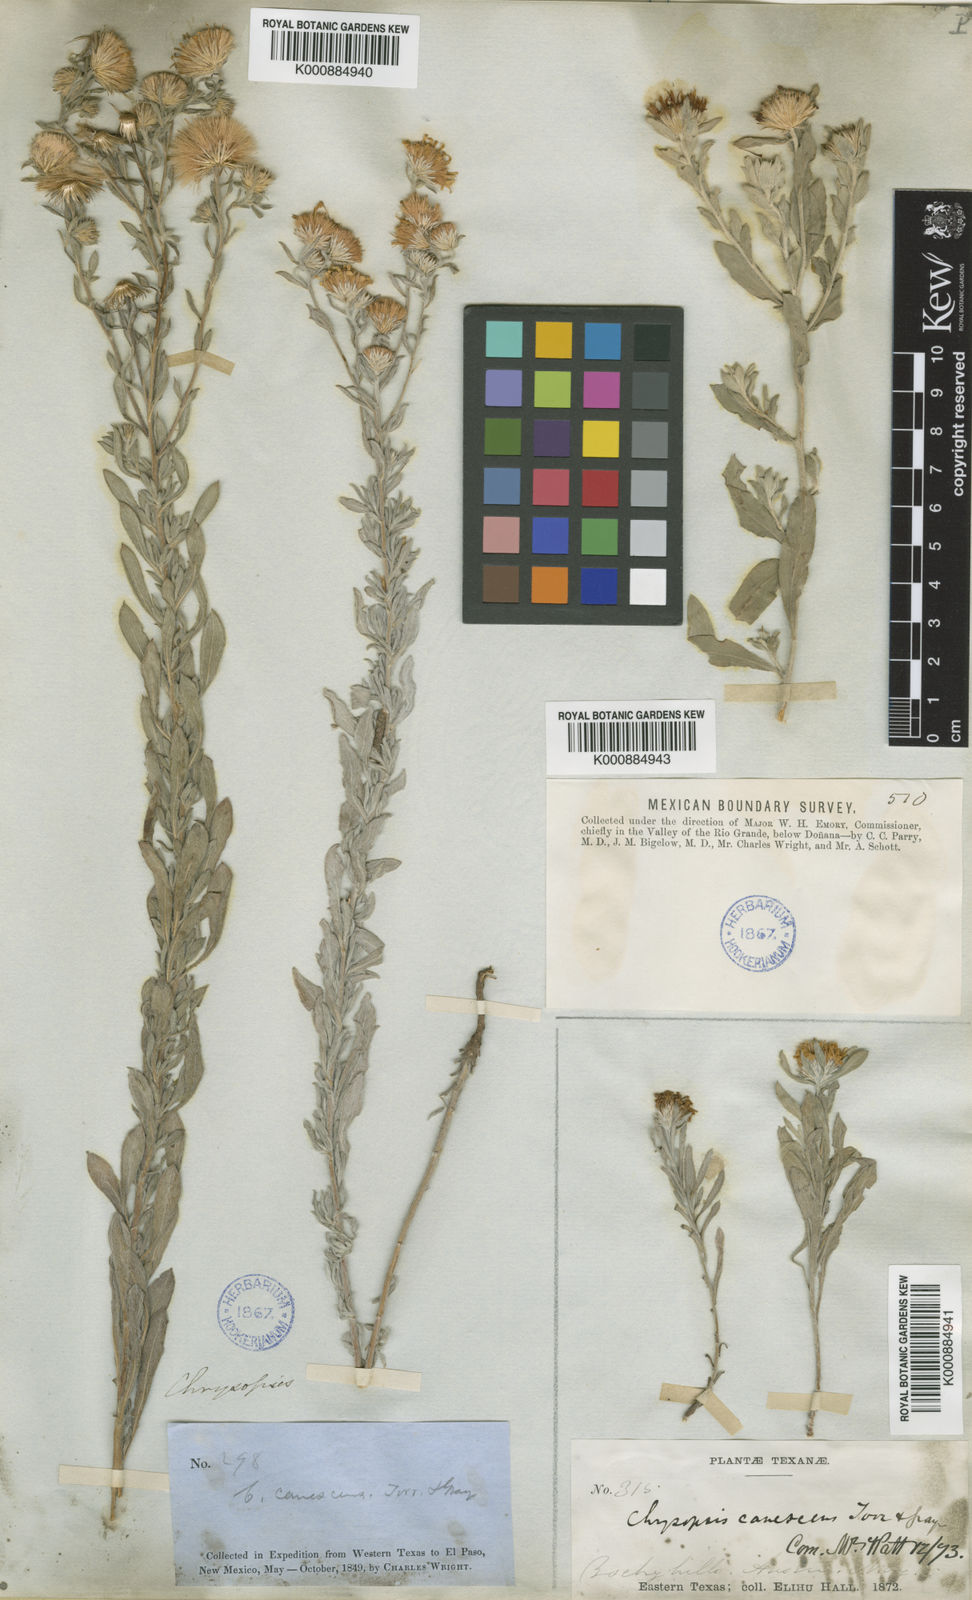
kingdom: Plantae
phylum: Tracheophyta
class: Magnoliopsida
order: Asterales
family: Asteraceae
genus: Heterotheca
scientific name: Heterotheca villosa
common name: Hairy false goldenaster
